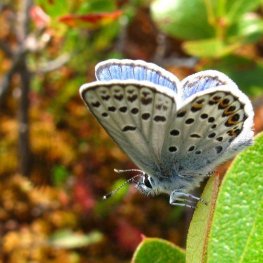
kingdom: Animalia
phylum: Arthropoda
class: Insecta
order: Lepidoptera
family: Lycaenidae
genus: Lycaeides
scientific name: Lycaeides idas
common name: Northern Blue
